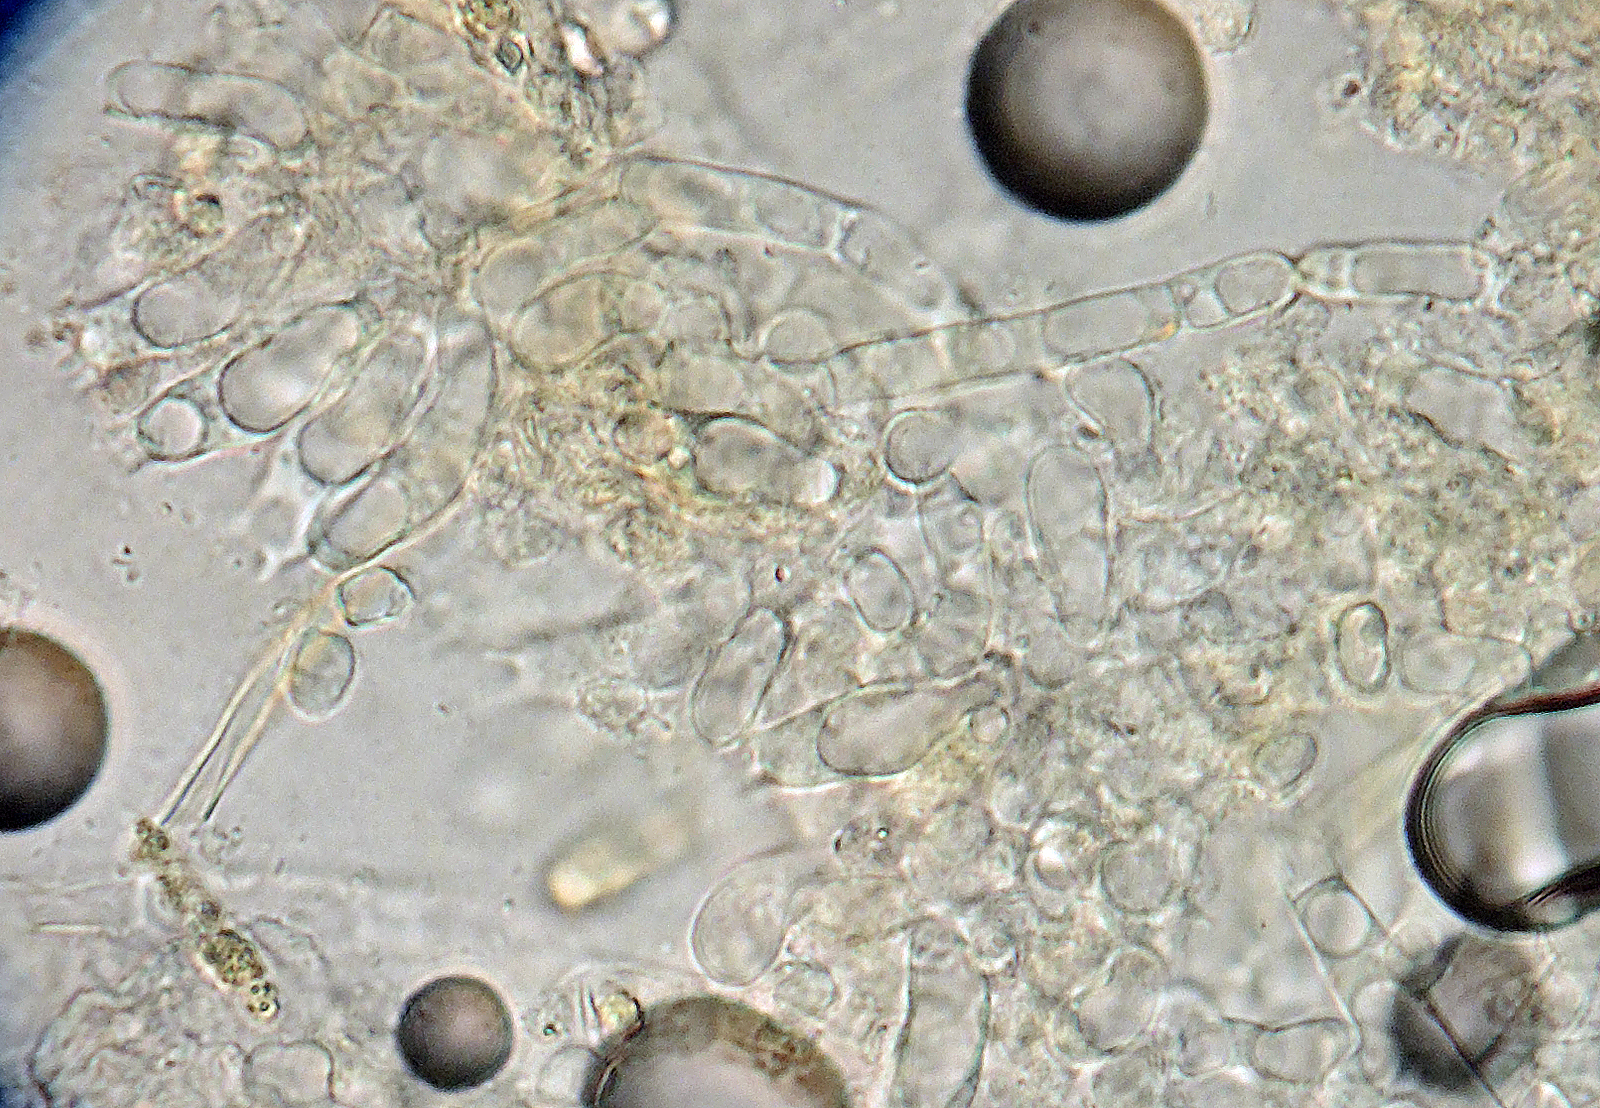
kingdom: Fungi
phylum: Basidiomycota
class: Agaricomycetes
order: Thelephorales
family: Thelephoraceae
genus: Tomentellopsis
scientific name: Tomentellopsis pusilla
